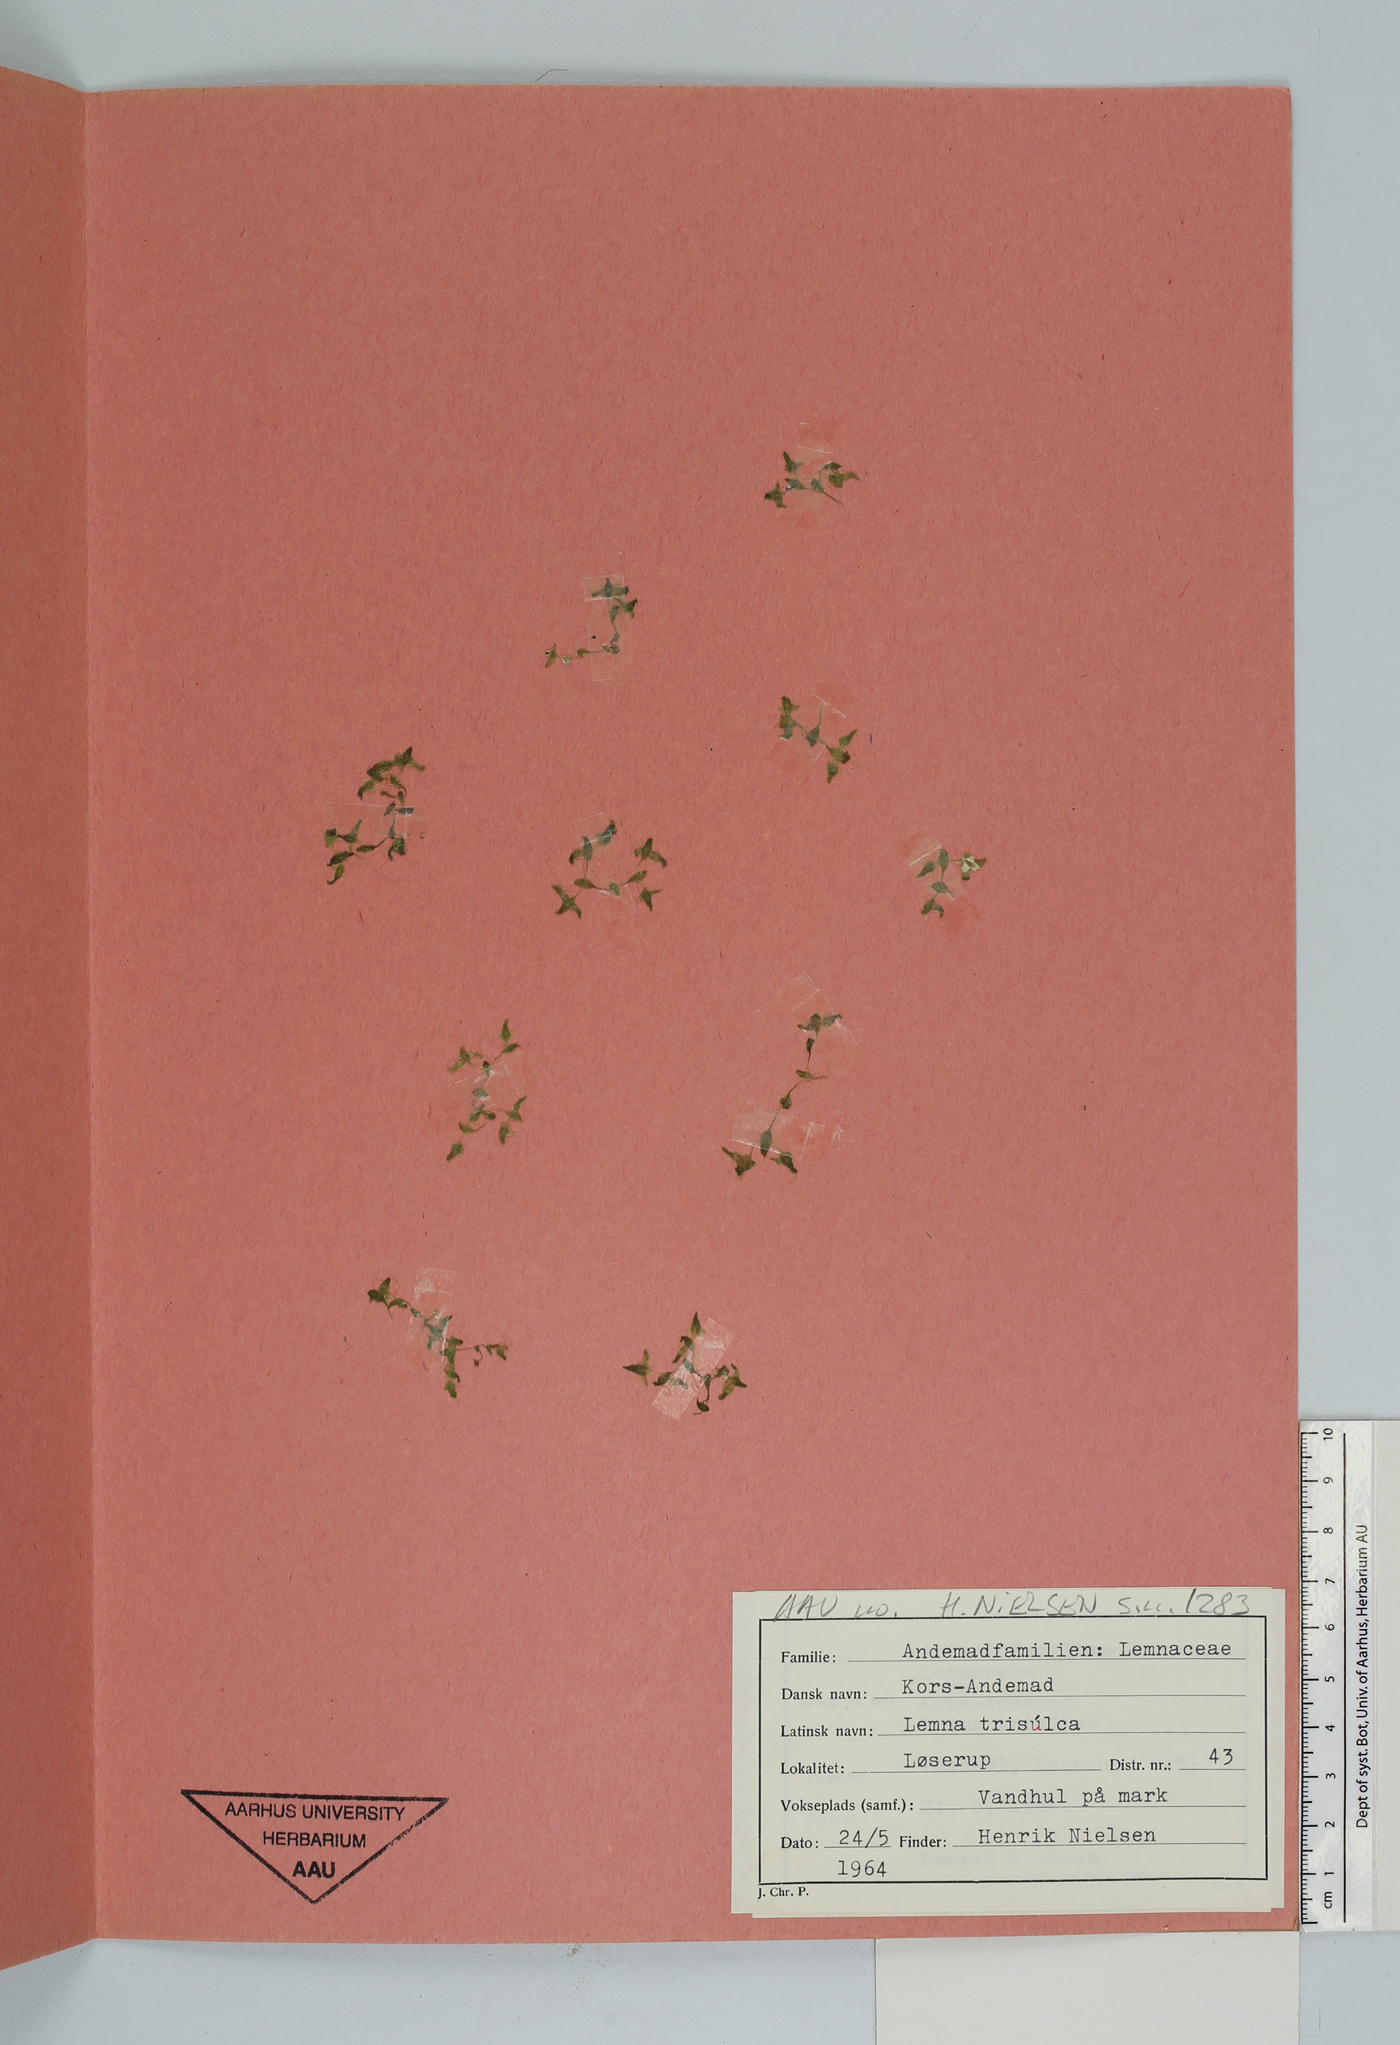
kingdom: Plantae
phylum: Tracheophyta
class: Liliopsida
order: Alismatales
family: Araceae
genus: Lemna
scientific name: Lemna trisulca
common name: Ivy-leaved duckweed
